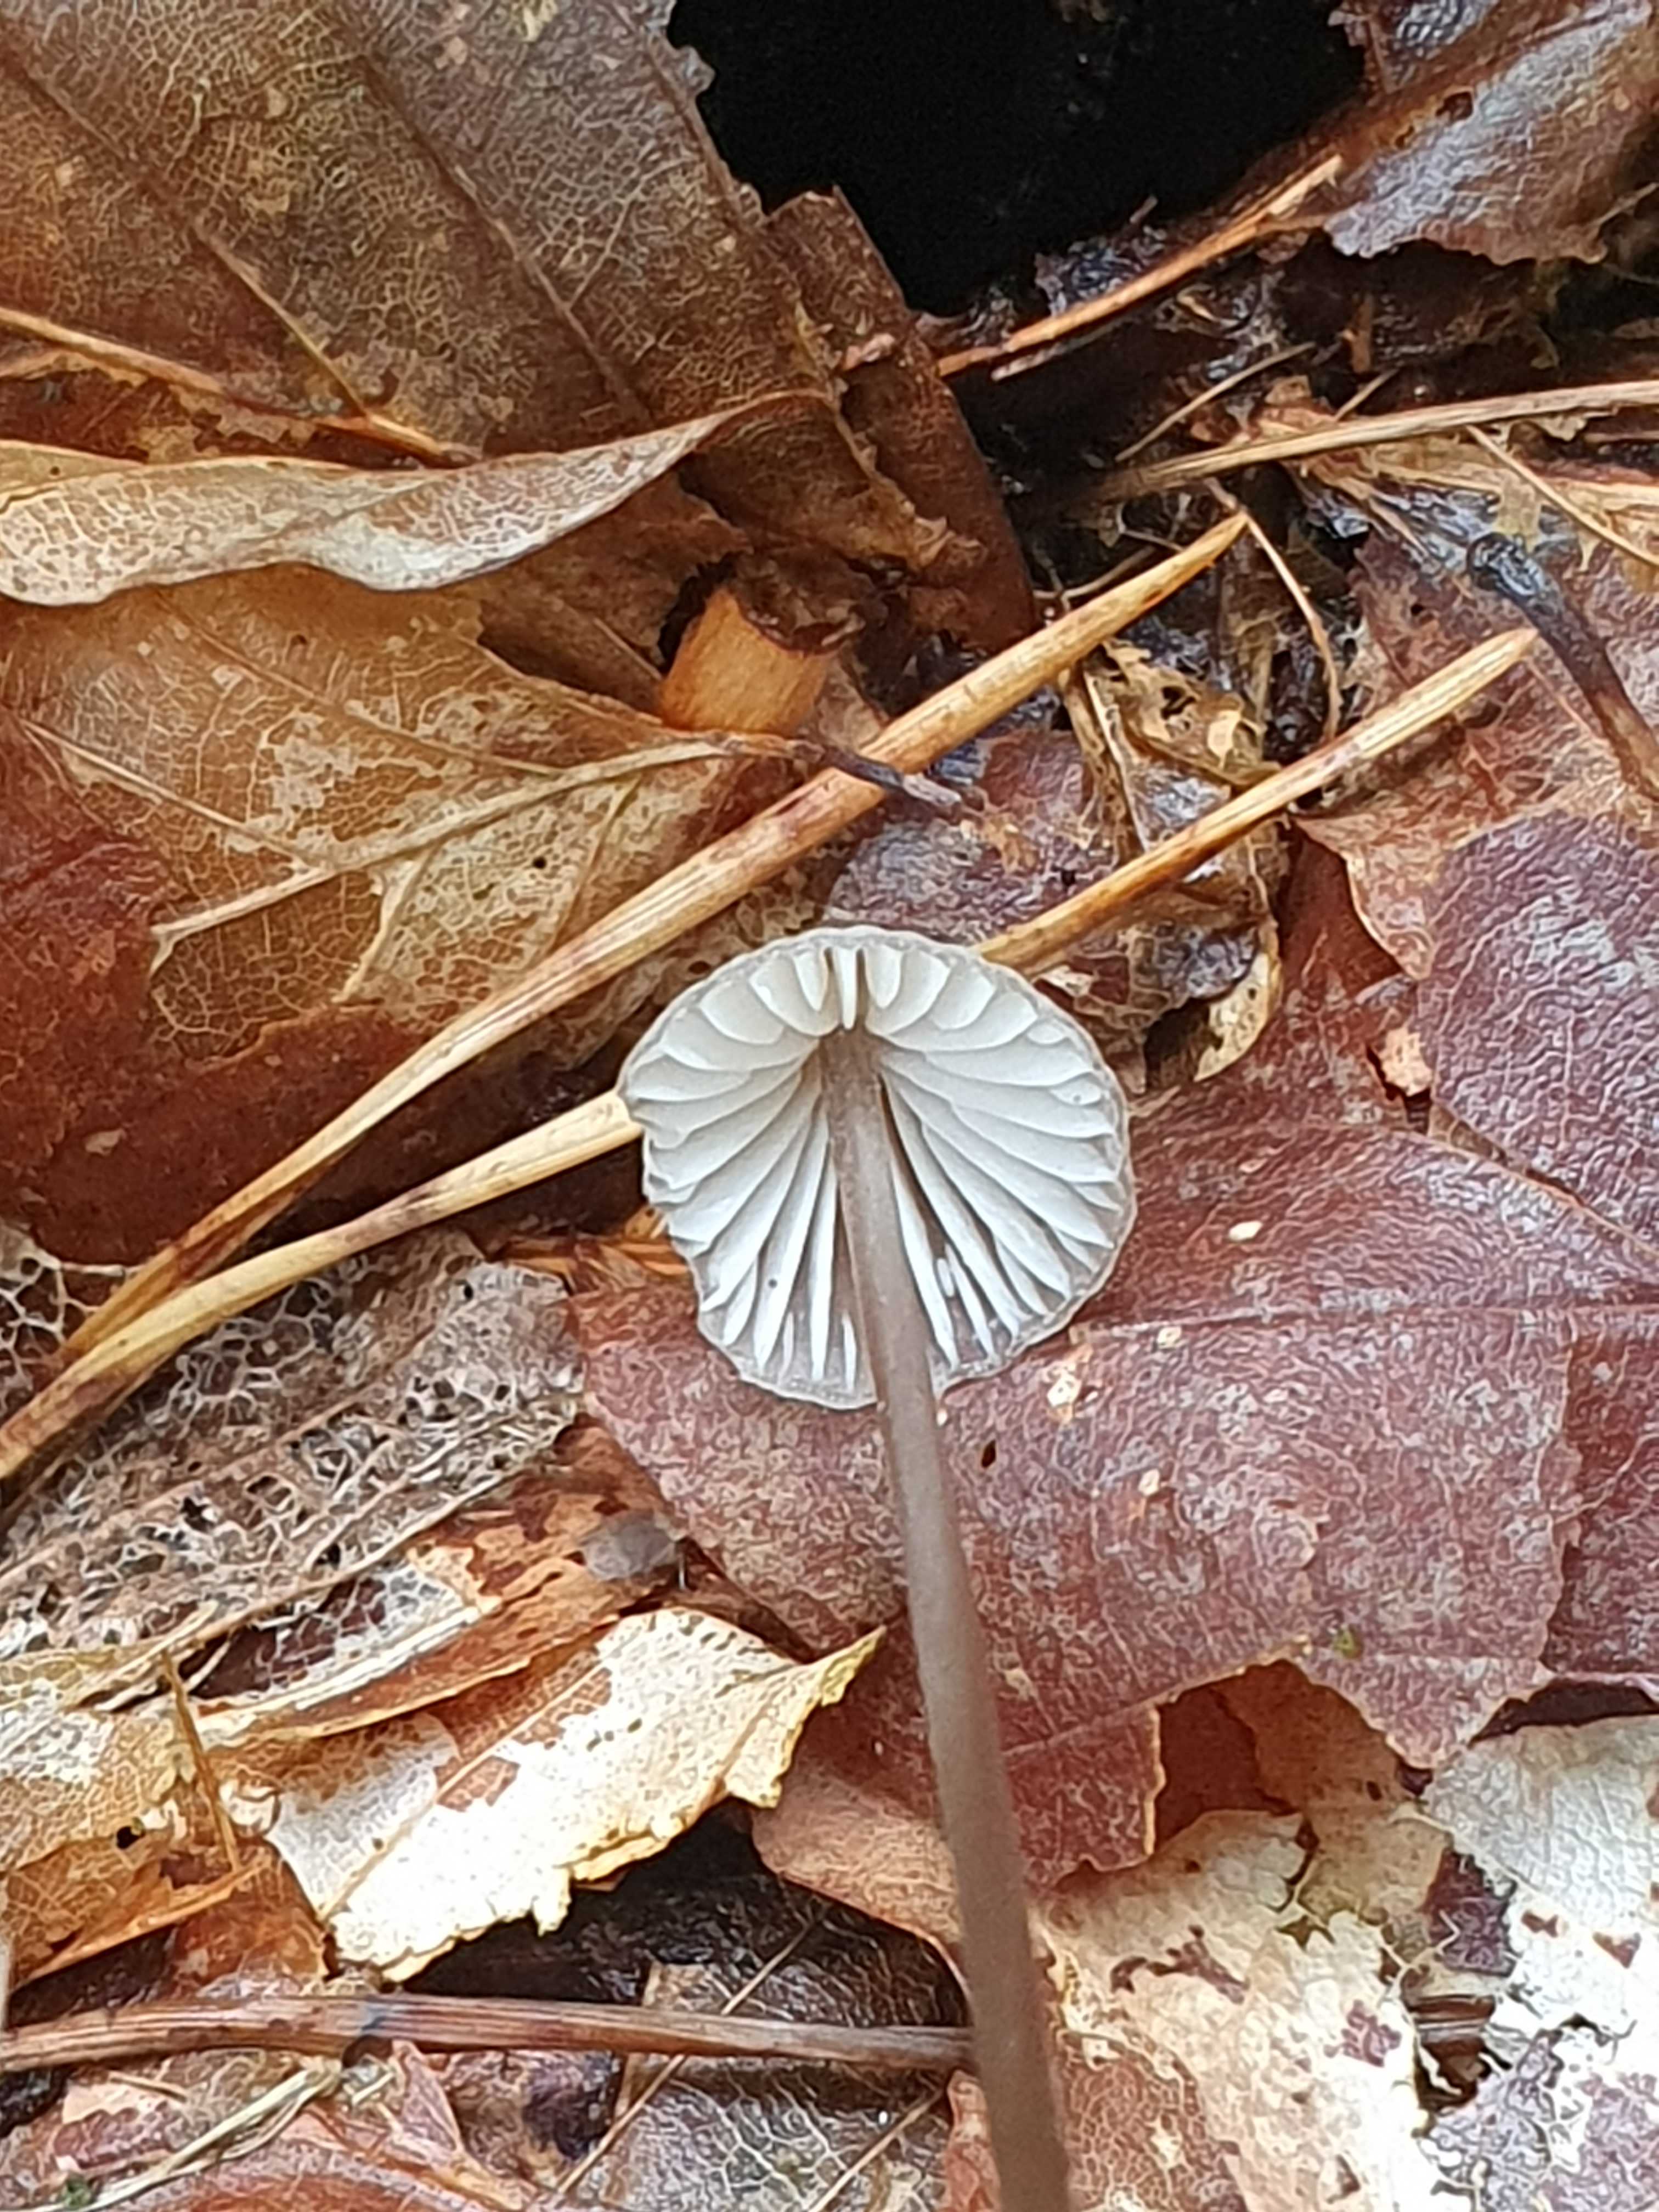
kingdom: Fungi
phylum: Basidiomycota
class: Agaricomycetes
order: Agaricales
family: Mycenaceae
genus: Mycena
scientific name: Mycena galopus
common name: hvidmælket huesvamp
